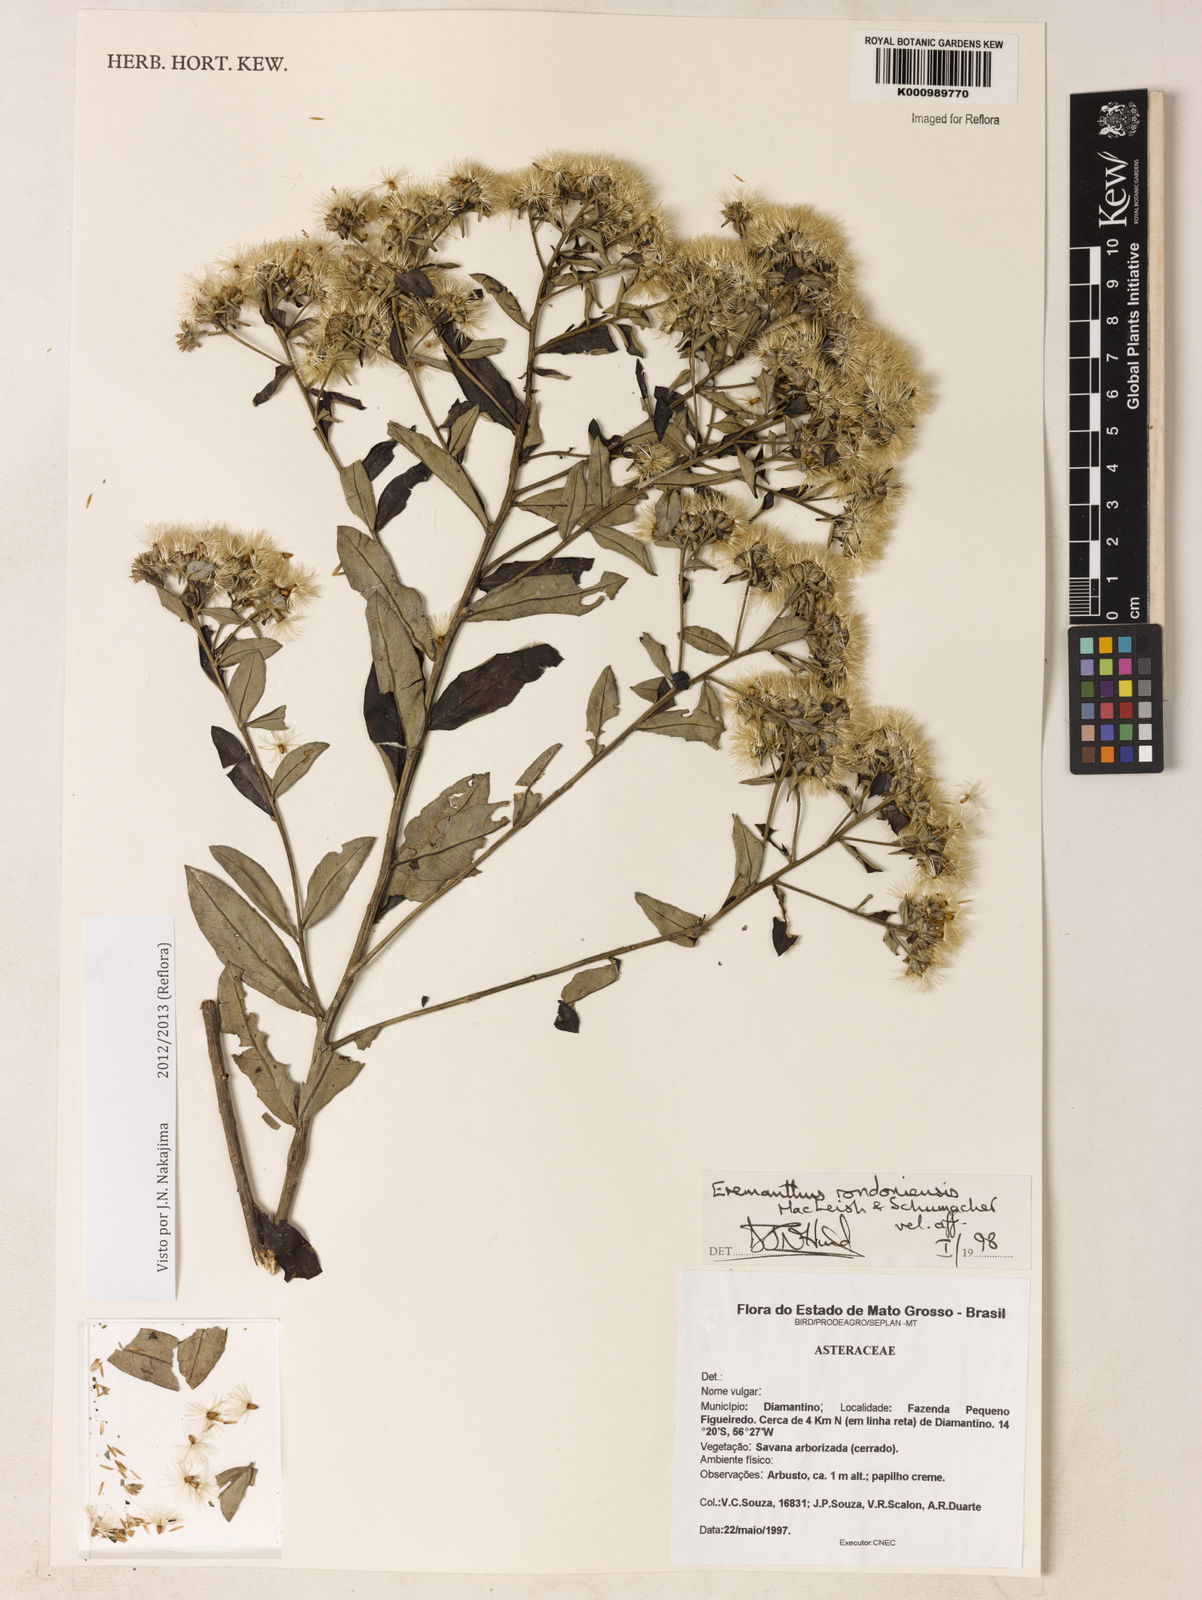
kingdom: Plantae
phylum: Tracheophyta
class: Magnoliopsida
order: Asterales
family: Asteraceae
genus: Eremanthus
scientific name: Eremanthus rondoniensis
